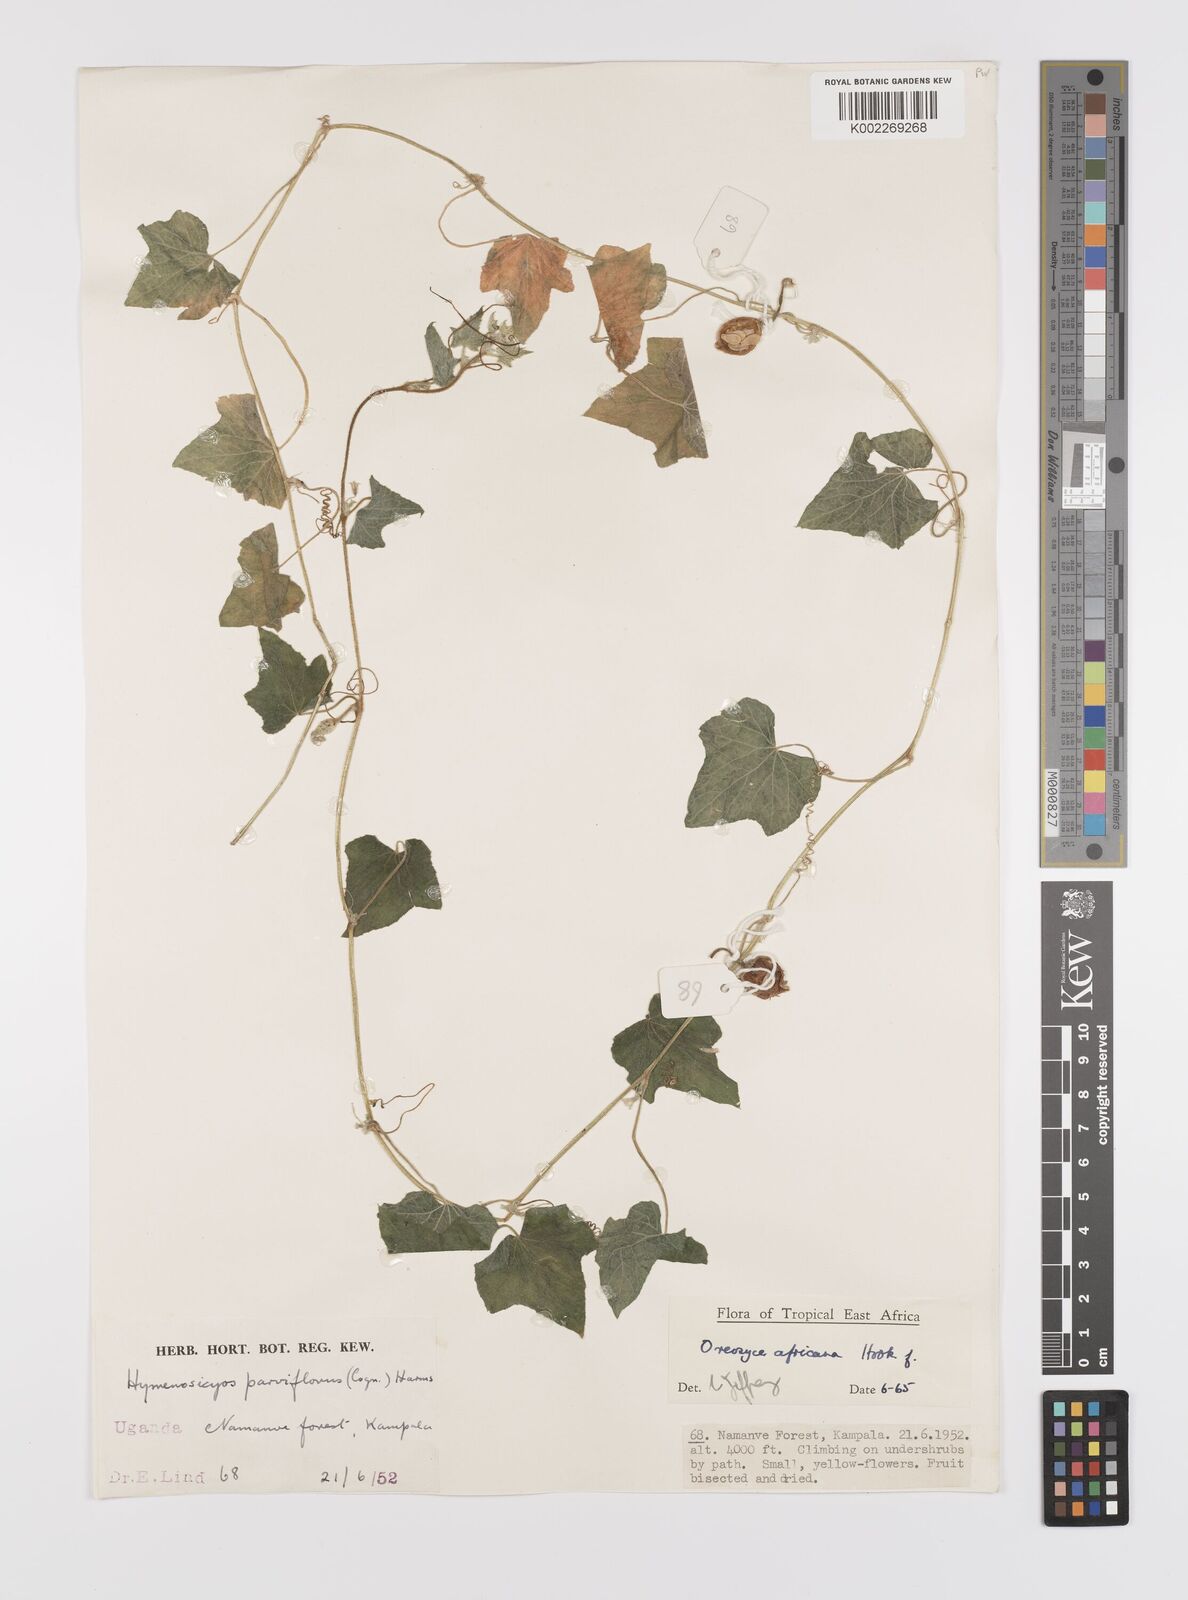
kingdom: Plantae
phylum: Tracheophyta
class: Magnoliopsida
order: Cucurbitales
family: Cucurbitaceae
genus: Cucumis
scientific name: Cucumis oreosyce
